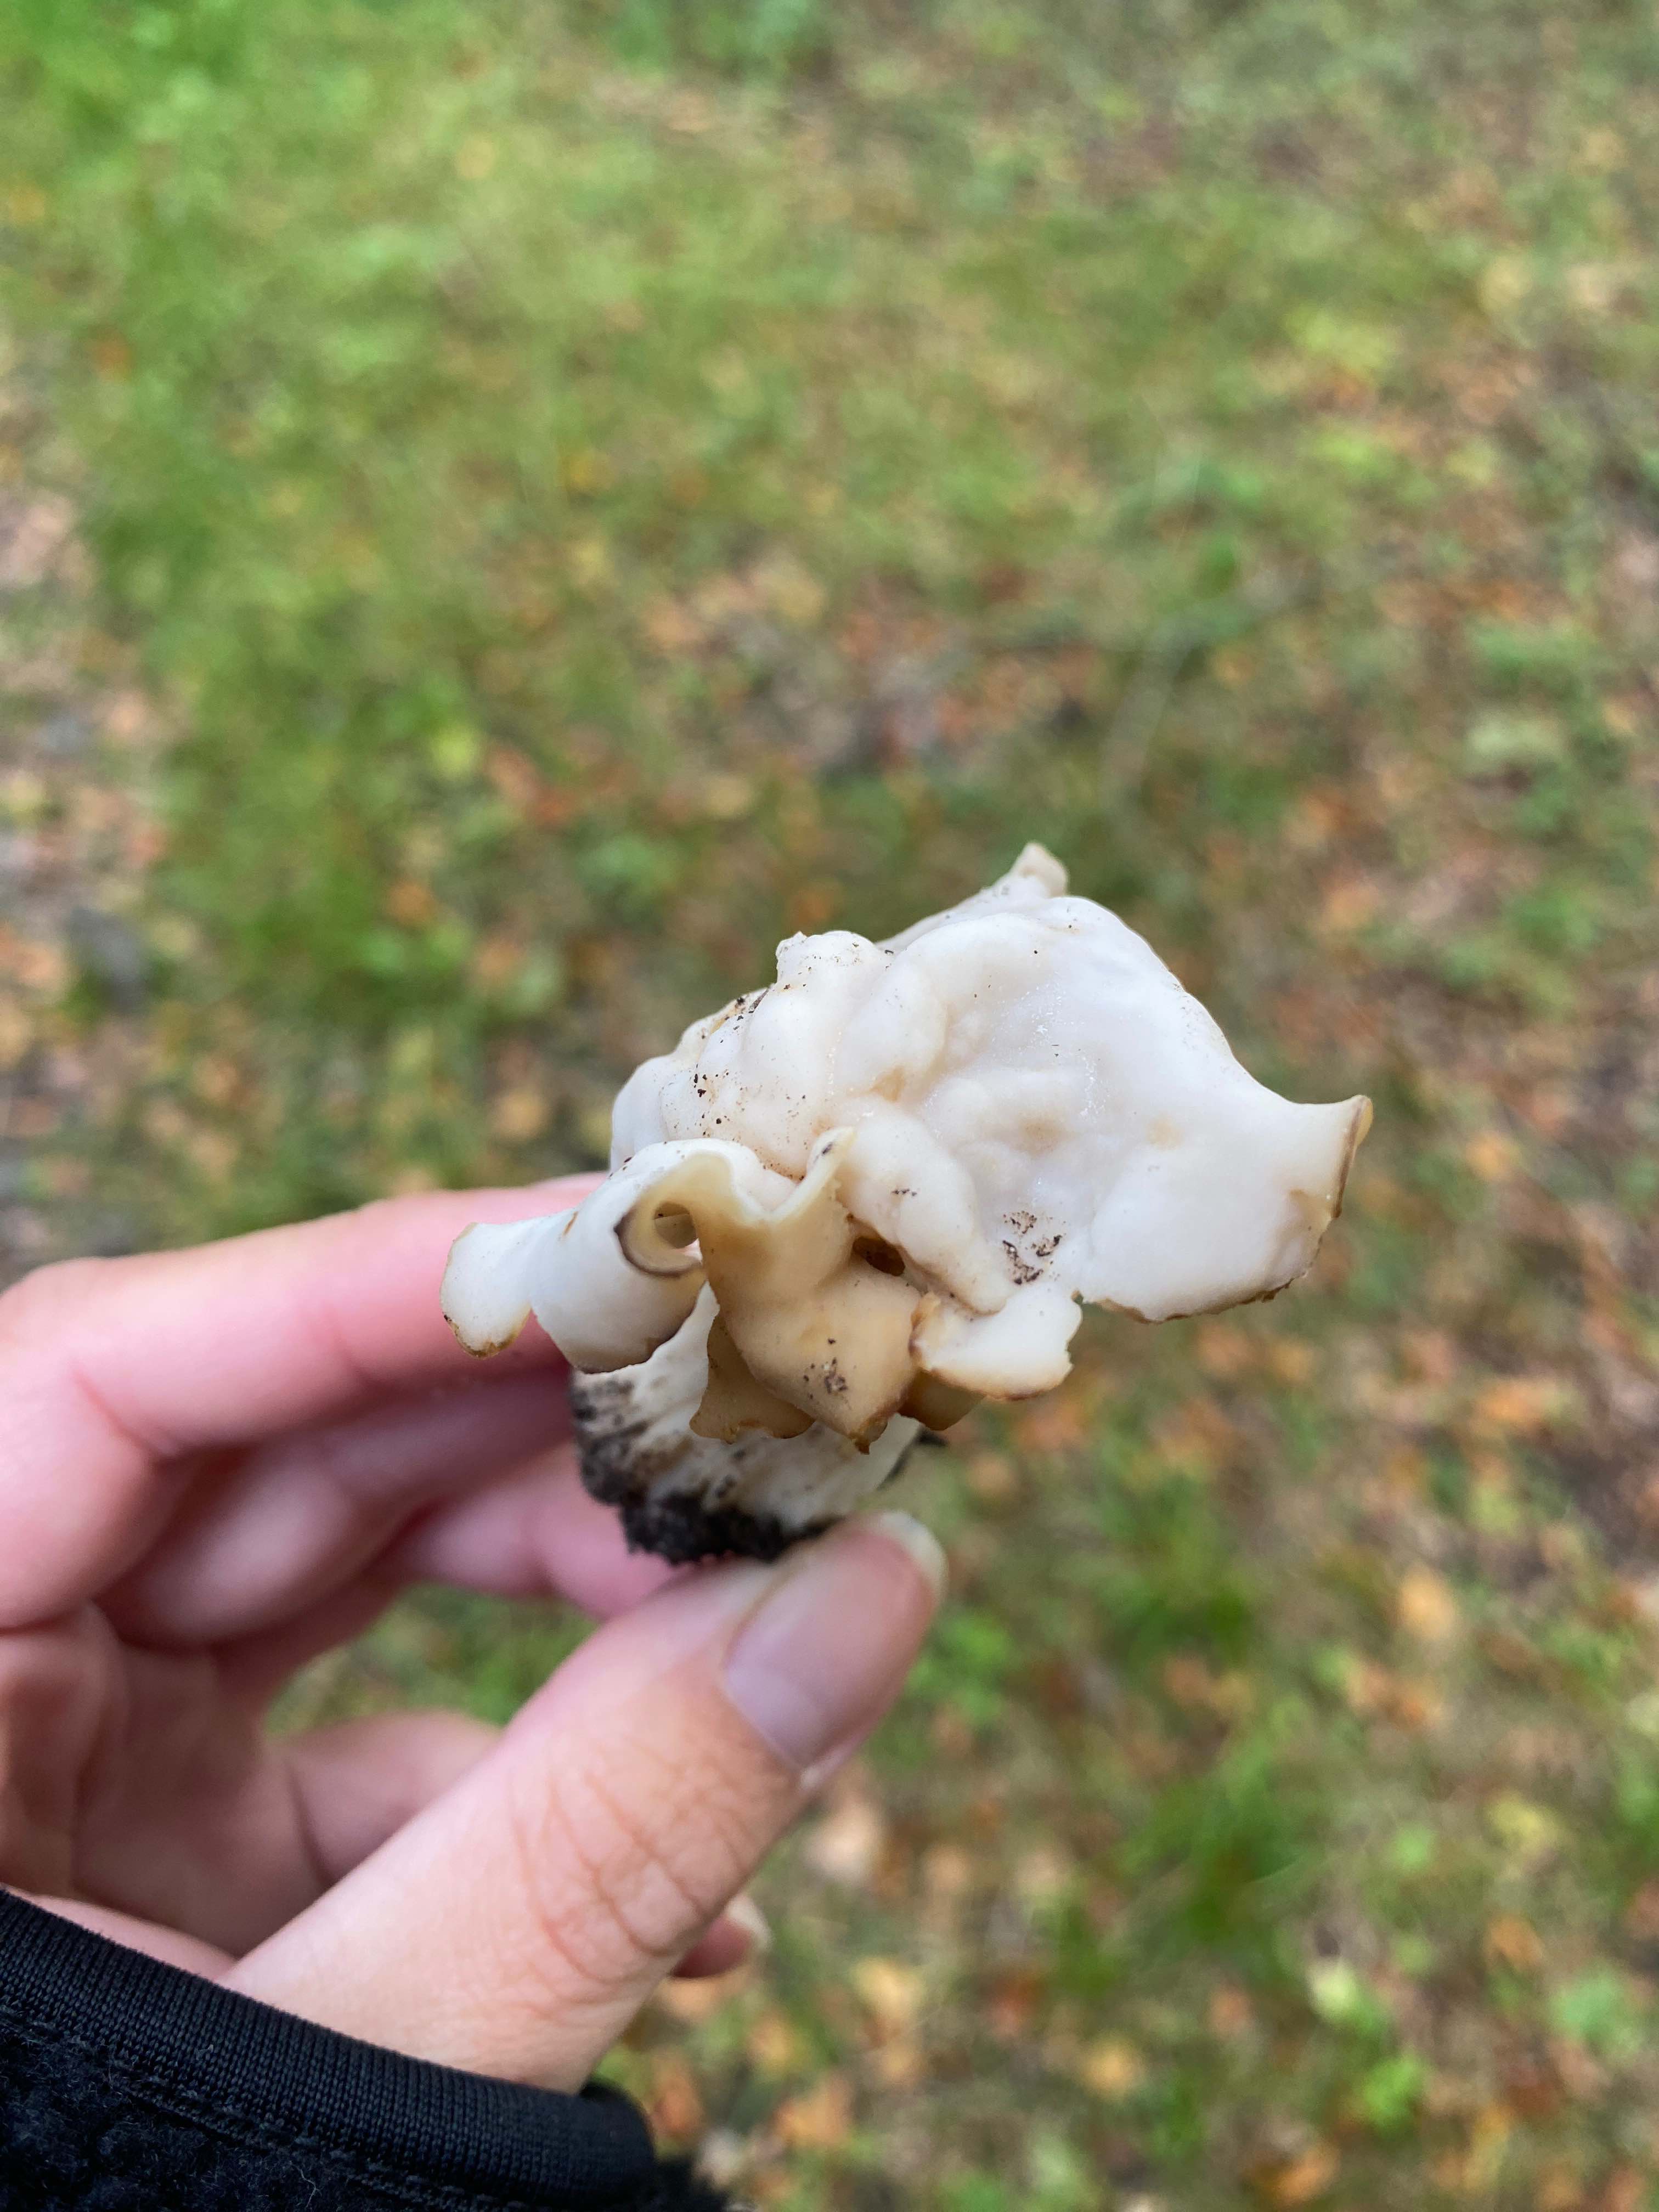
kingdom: Fungi
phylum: Ascomycota
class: Pezizomycetes
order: Pezizales
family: Helvellaceae
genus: Helvella
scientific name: Helvella crispa
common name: kruset foldhat
